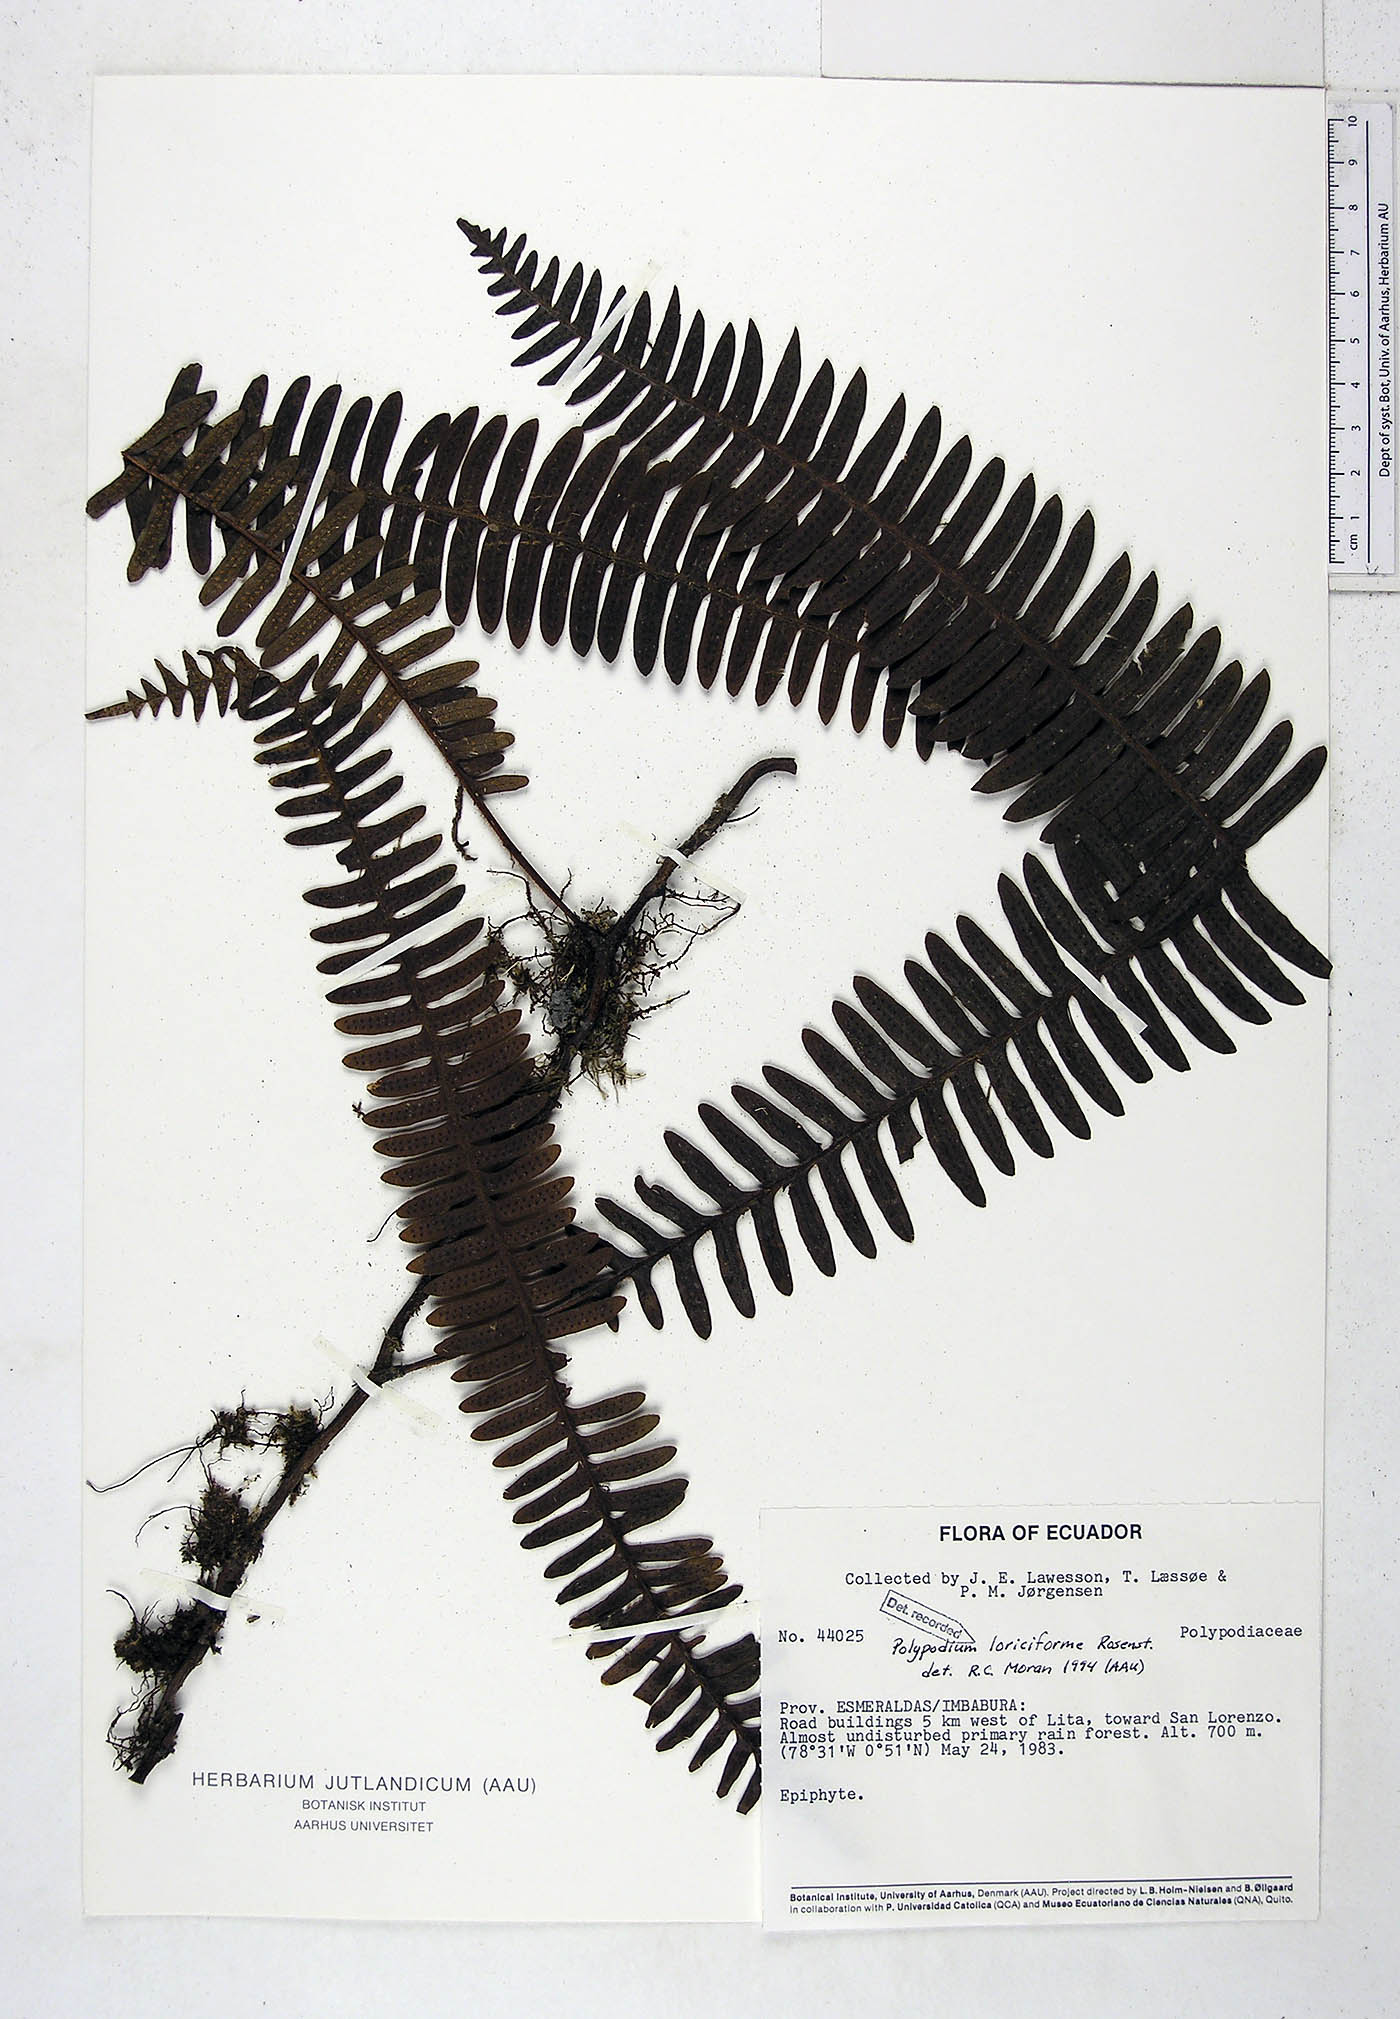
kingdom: Plantae
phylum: Tracheophyta
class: Polypodiopsida
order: Polypodiales
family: Polypodiaceae
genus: Serpocaulon
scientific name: Serpocaulon loriciforme
